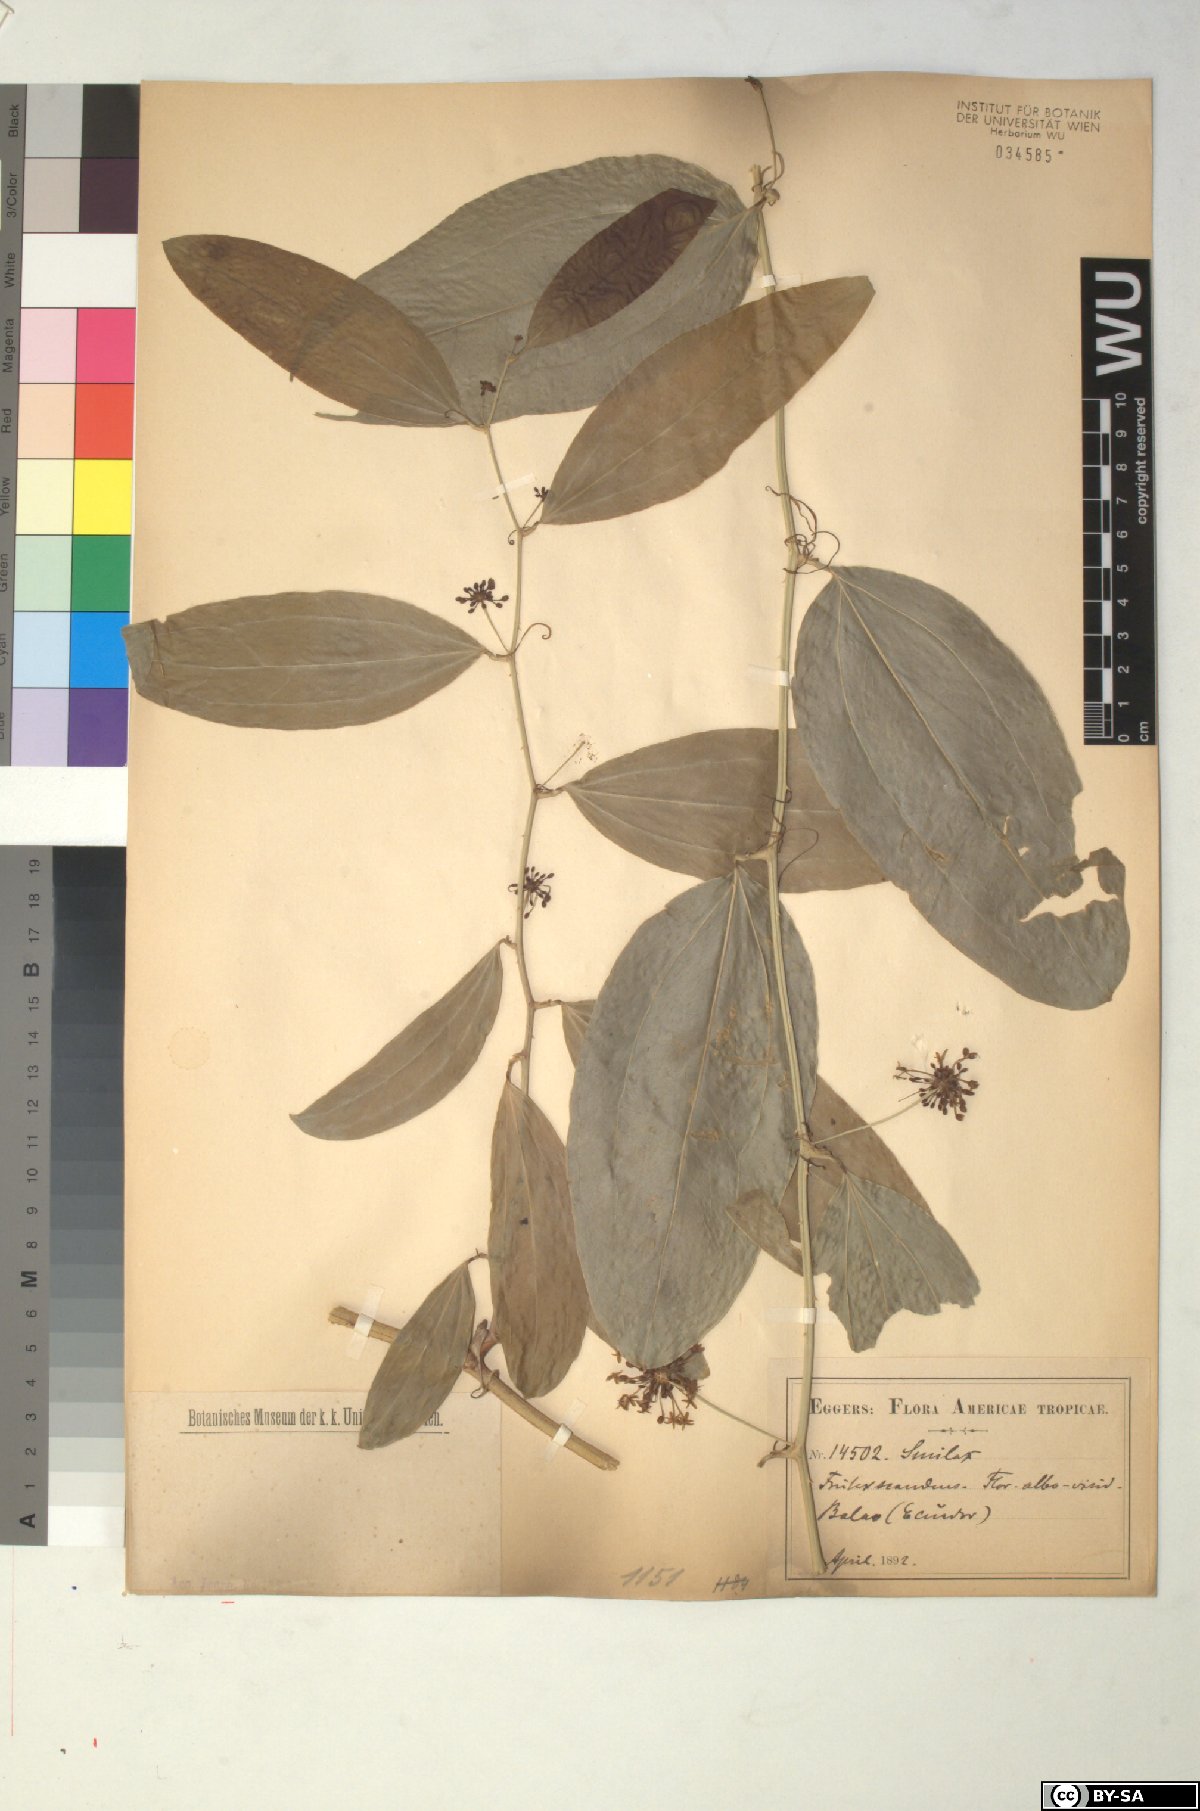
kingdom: Plantae
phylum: Tracheophyta
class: Liliopsida
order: Liliales
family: Smilacaceae
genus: Smilax
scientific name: Smilax
